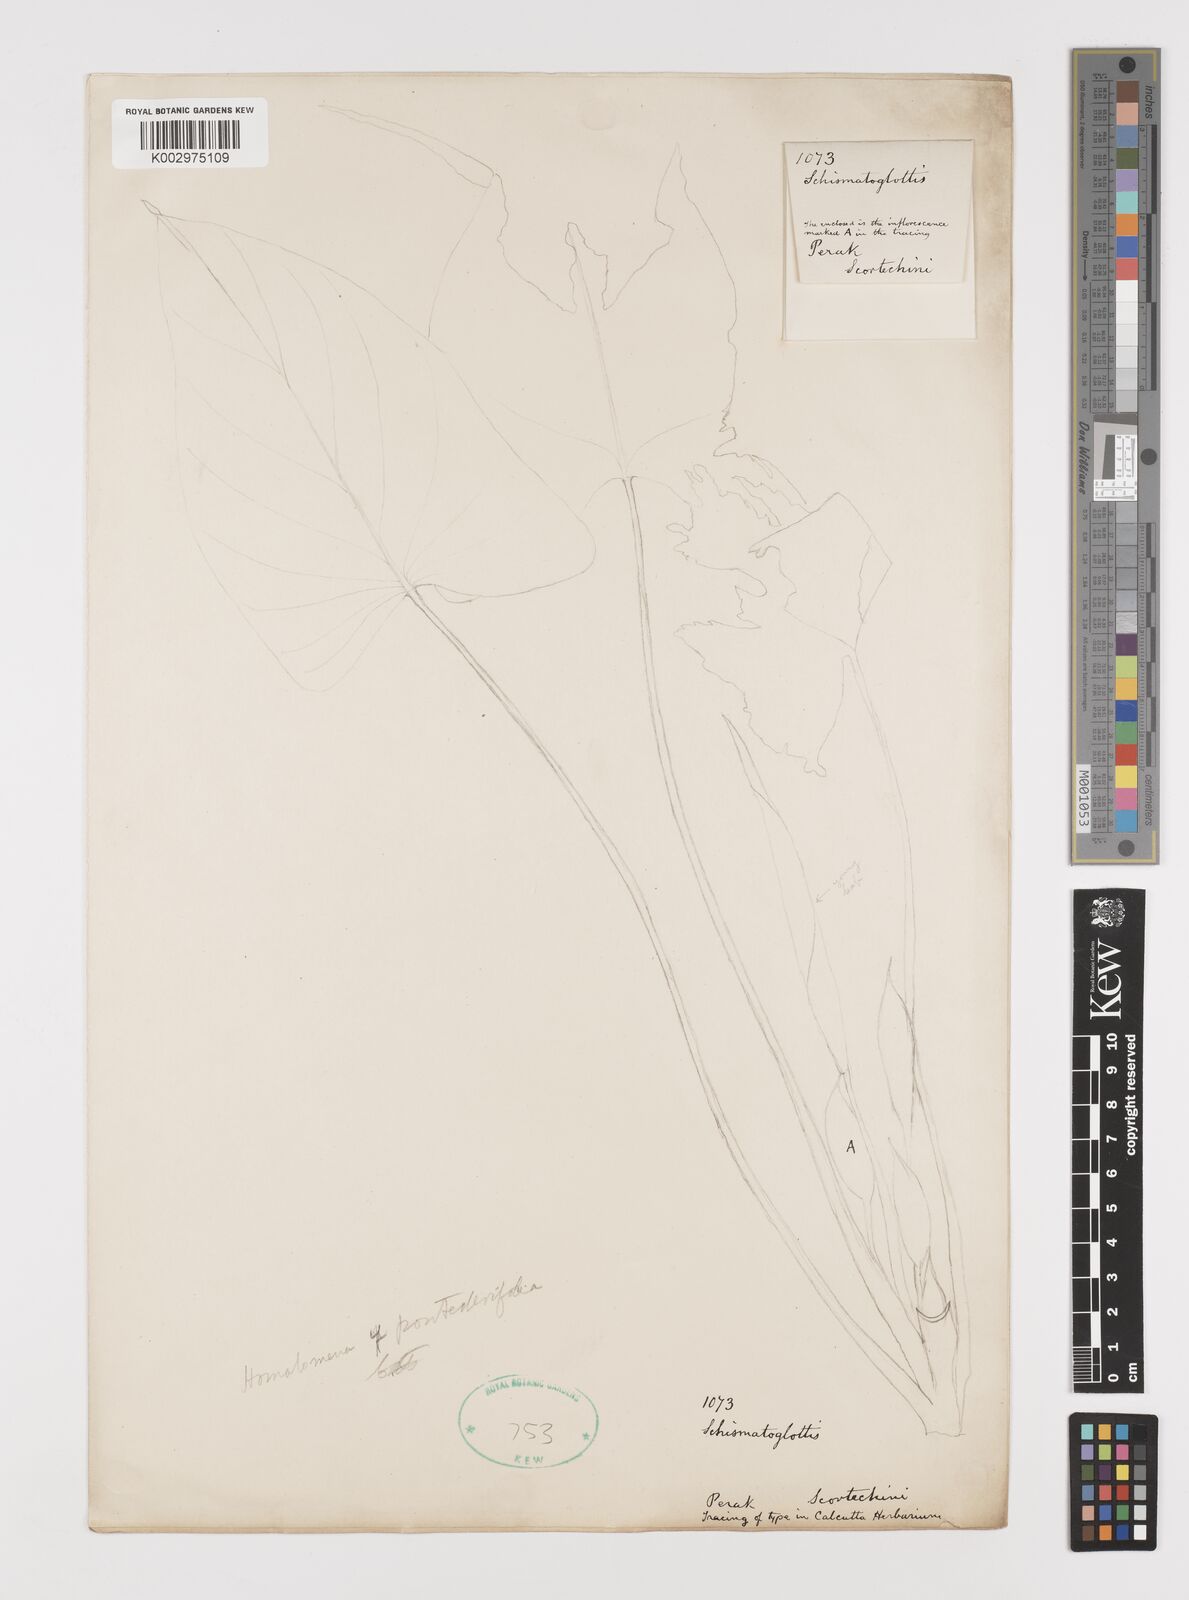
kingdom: Plantae
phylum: Tracheophyta
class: Liliopsida
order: Alismatales
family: Araceae
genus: Homalomena
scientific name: Homalomena pendula
